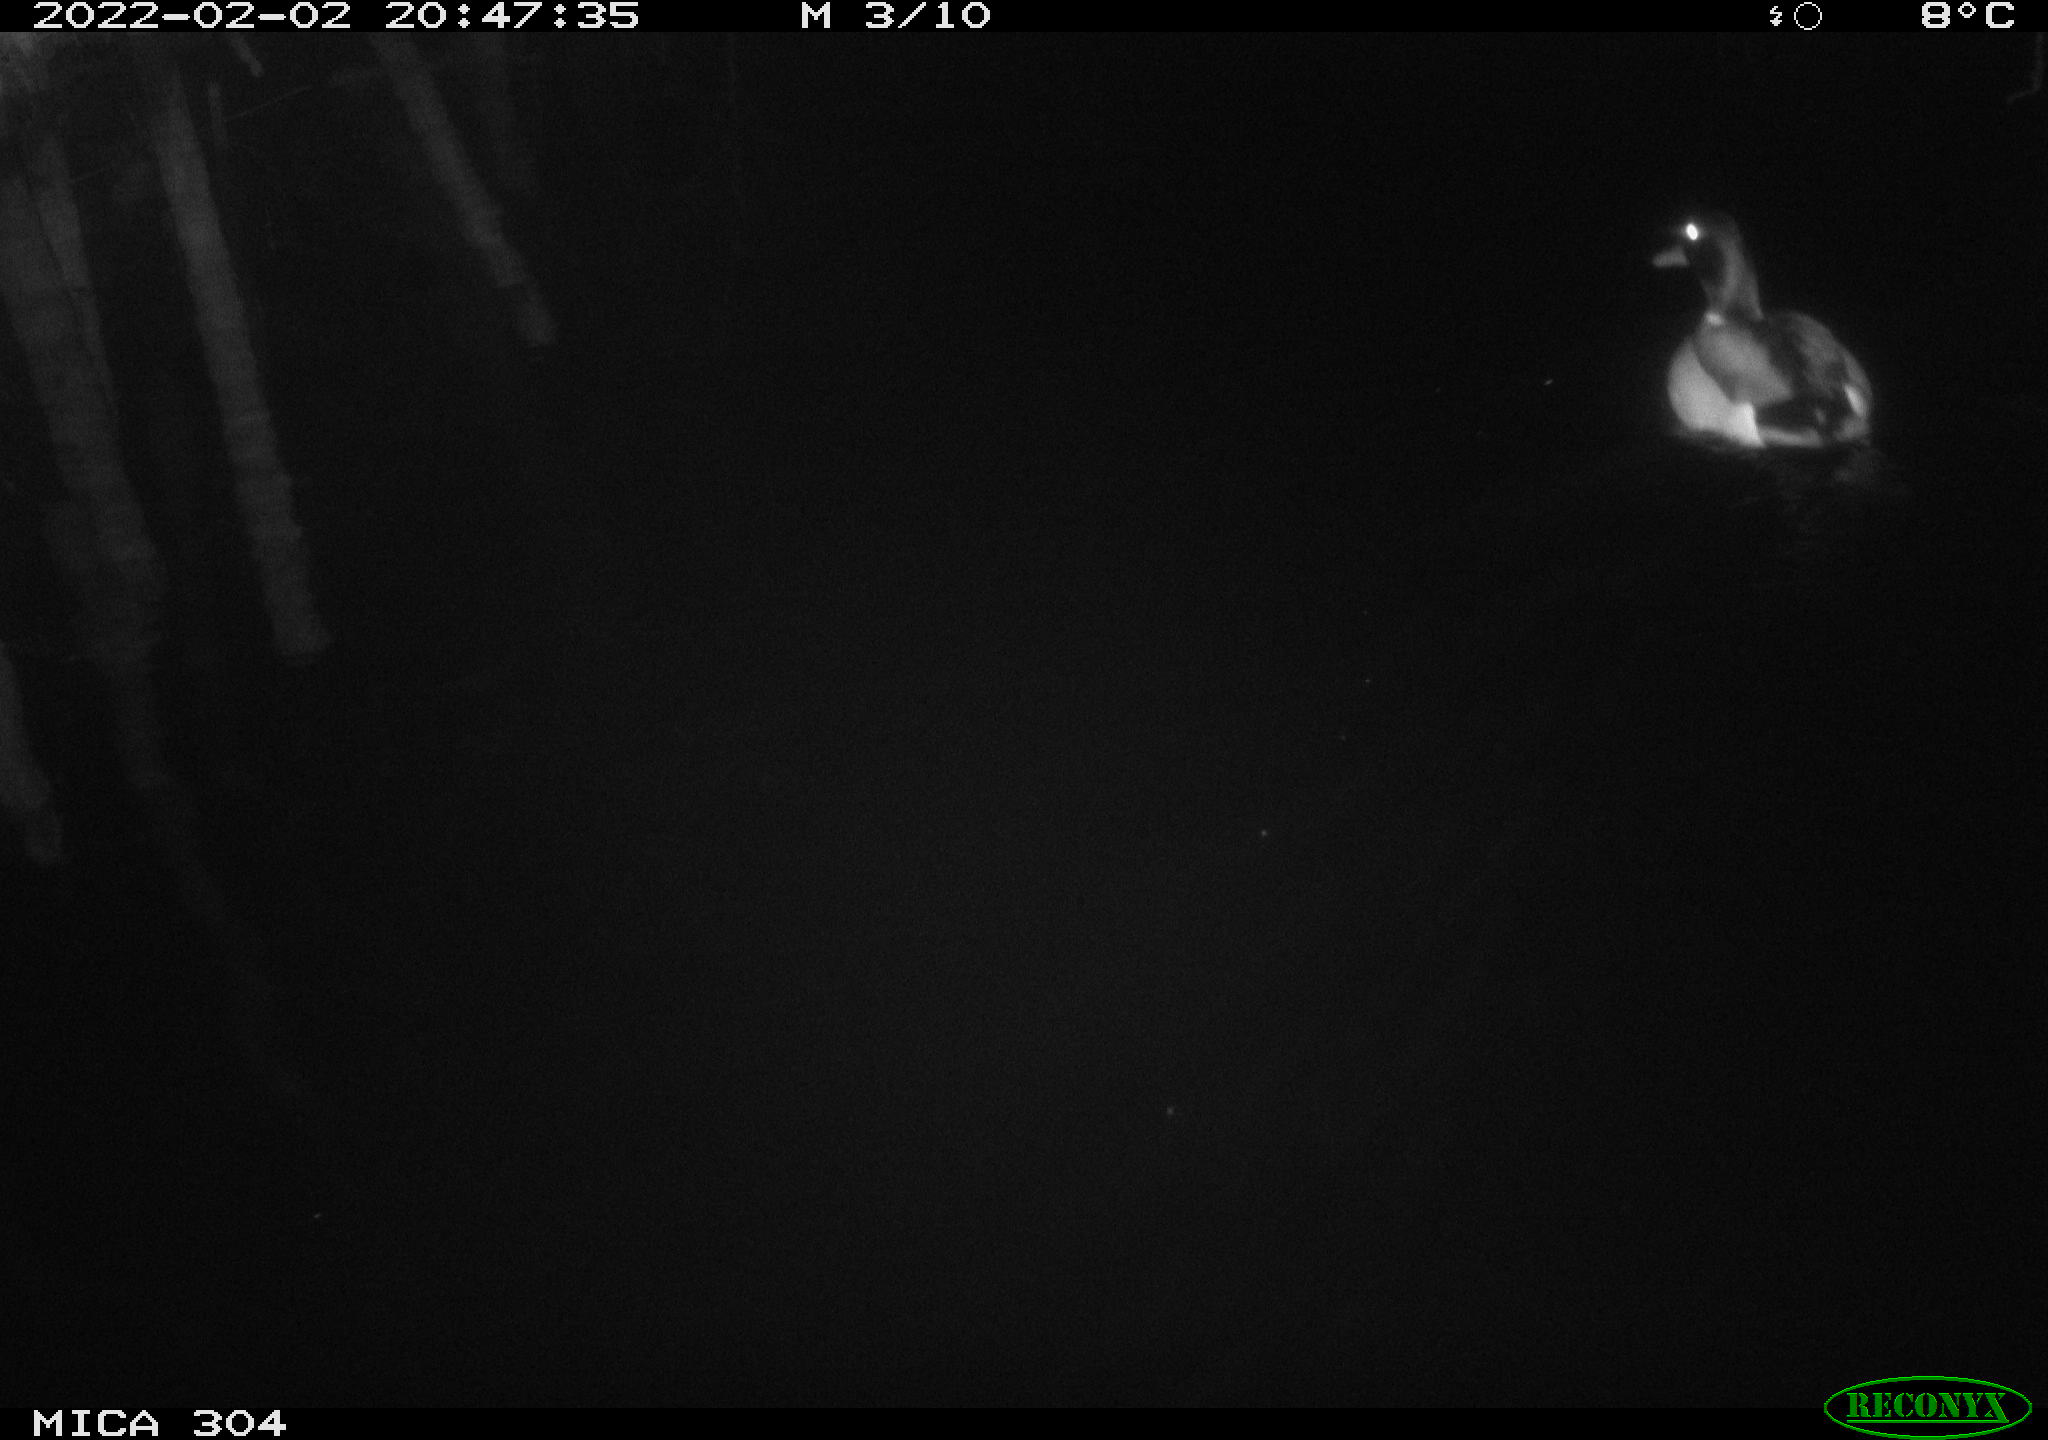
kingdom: Animalia
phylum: Chordata
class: Aves
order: Anseriformes
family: Anatidae
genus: Anas
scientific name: Anas
